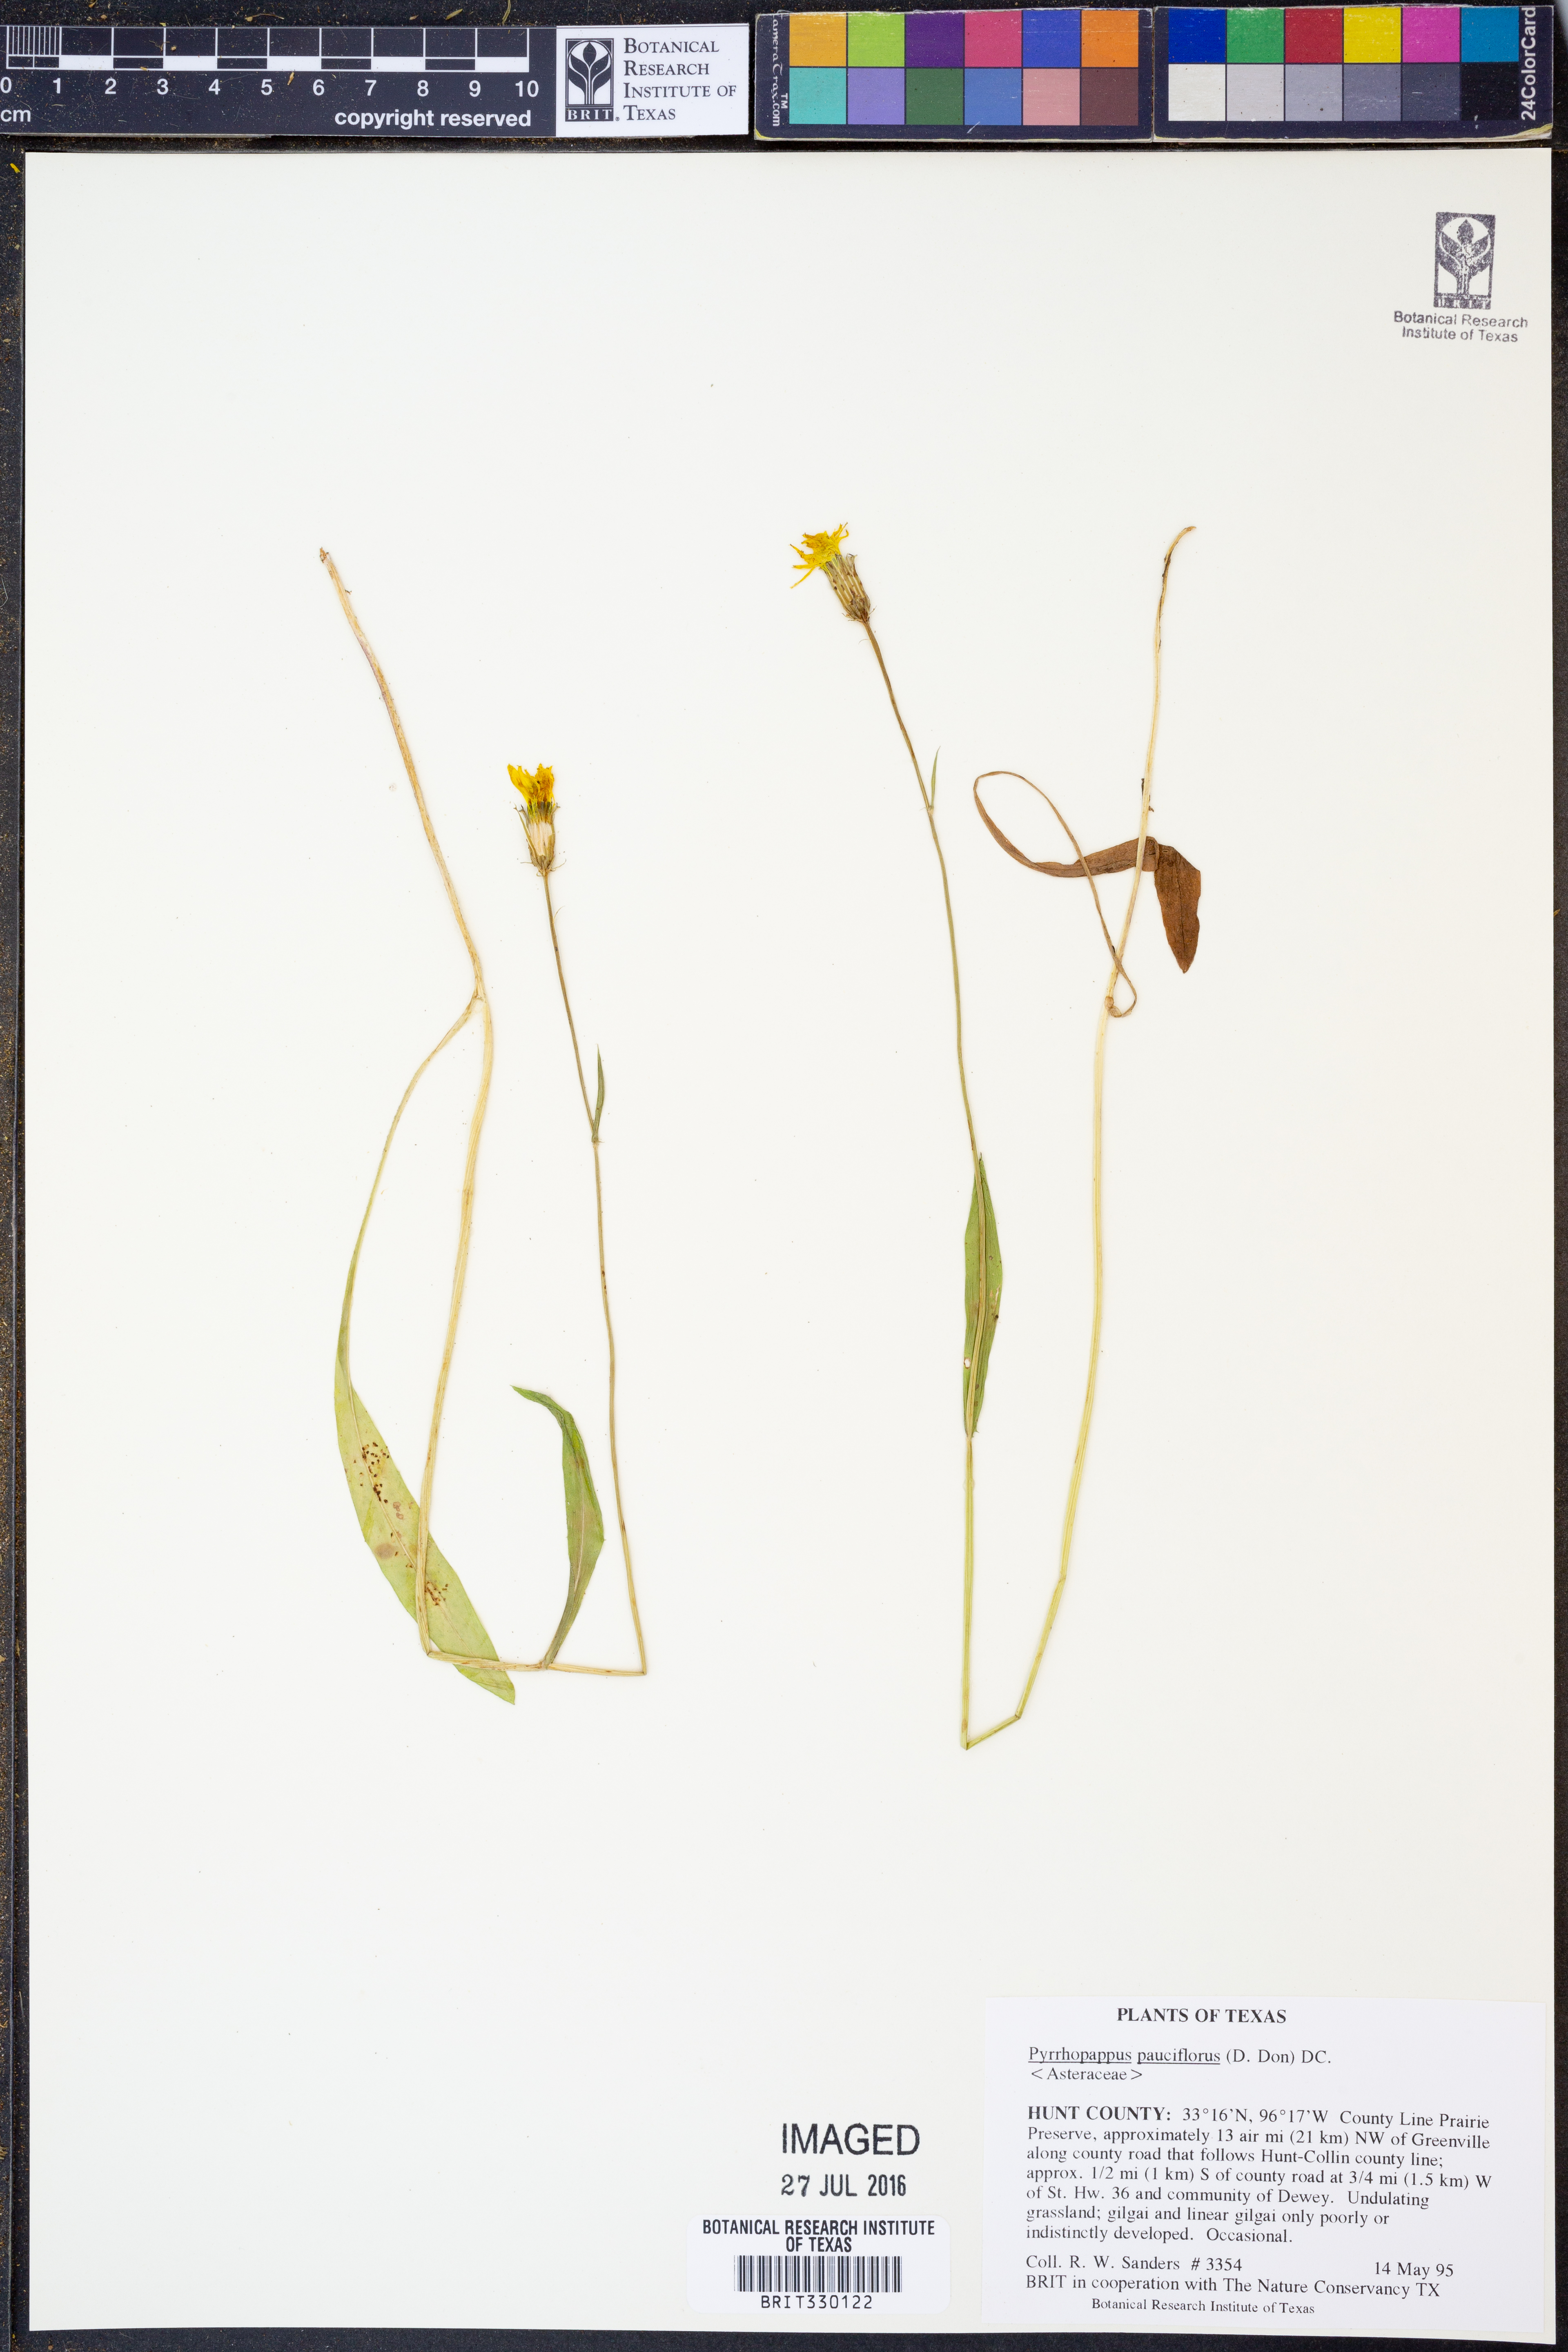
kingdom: Plantae
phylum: Tracheophyta
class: Magnoliopsida
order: Asterales
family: Asteraceae
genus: Pyrrhopappus
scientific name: Pyrrhopappus pauciflorus
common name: Texas false dandelion
